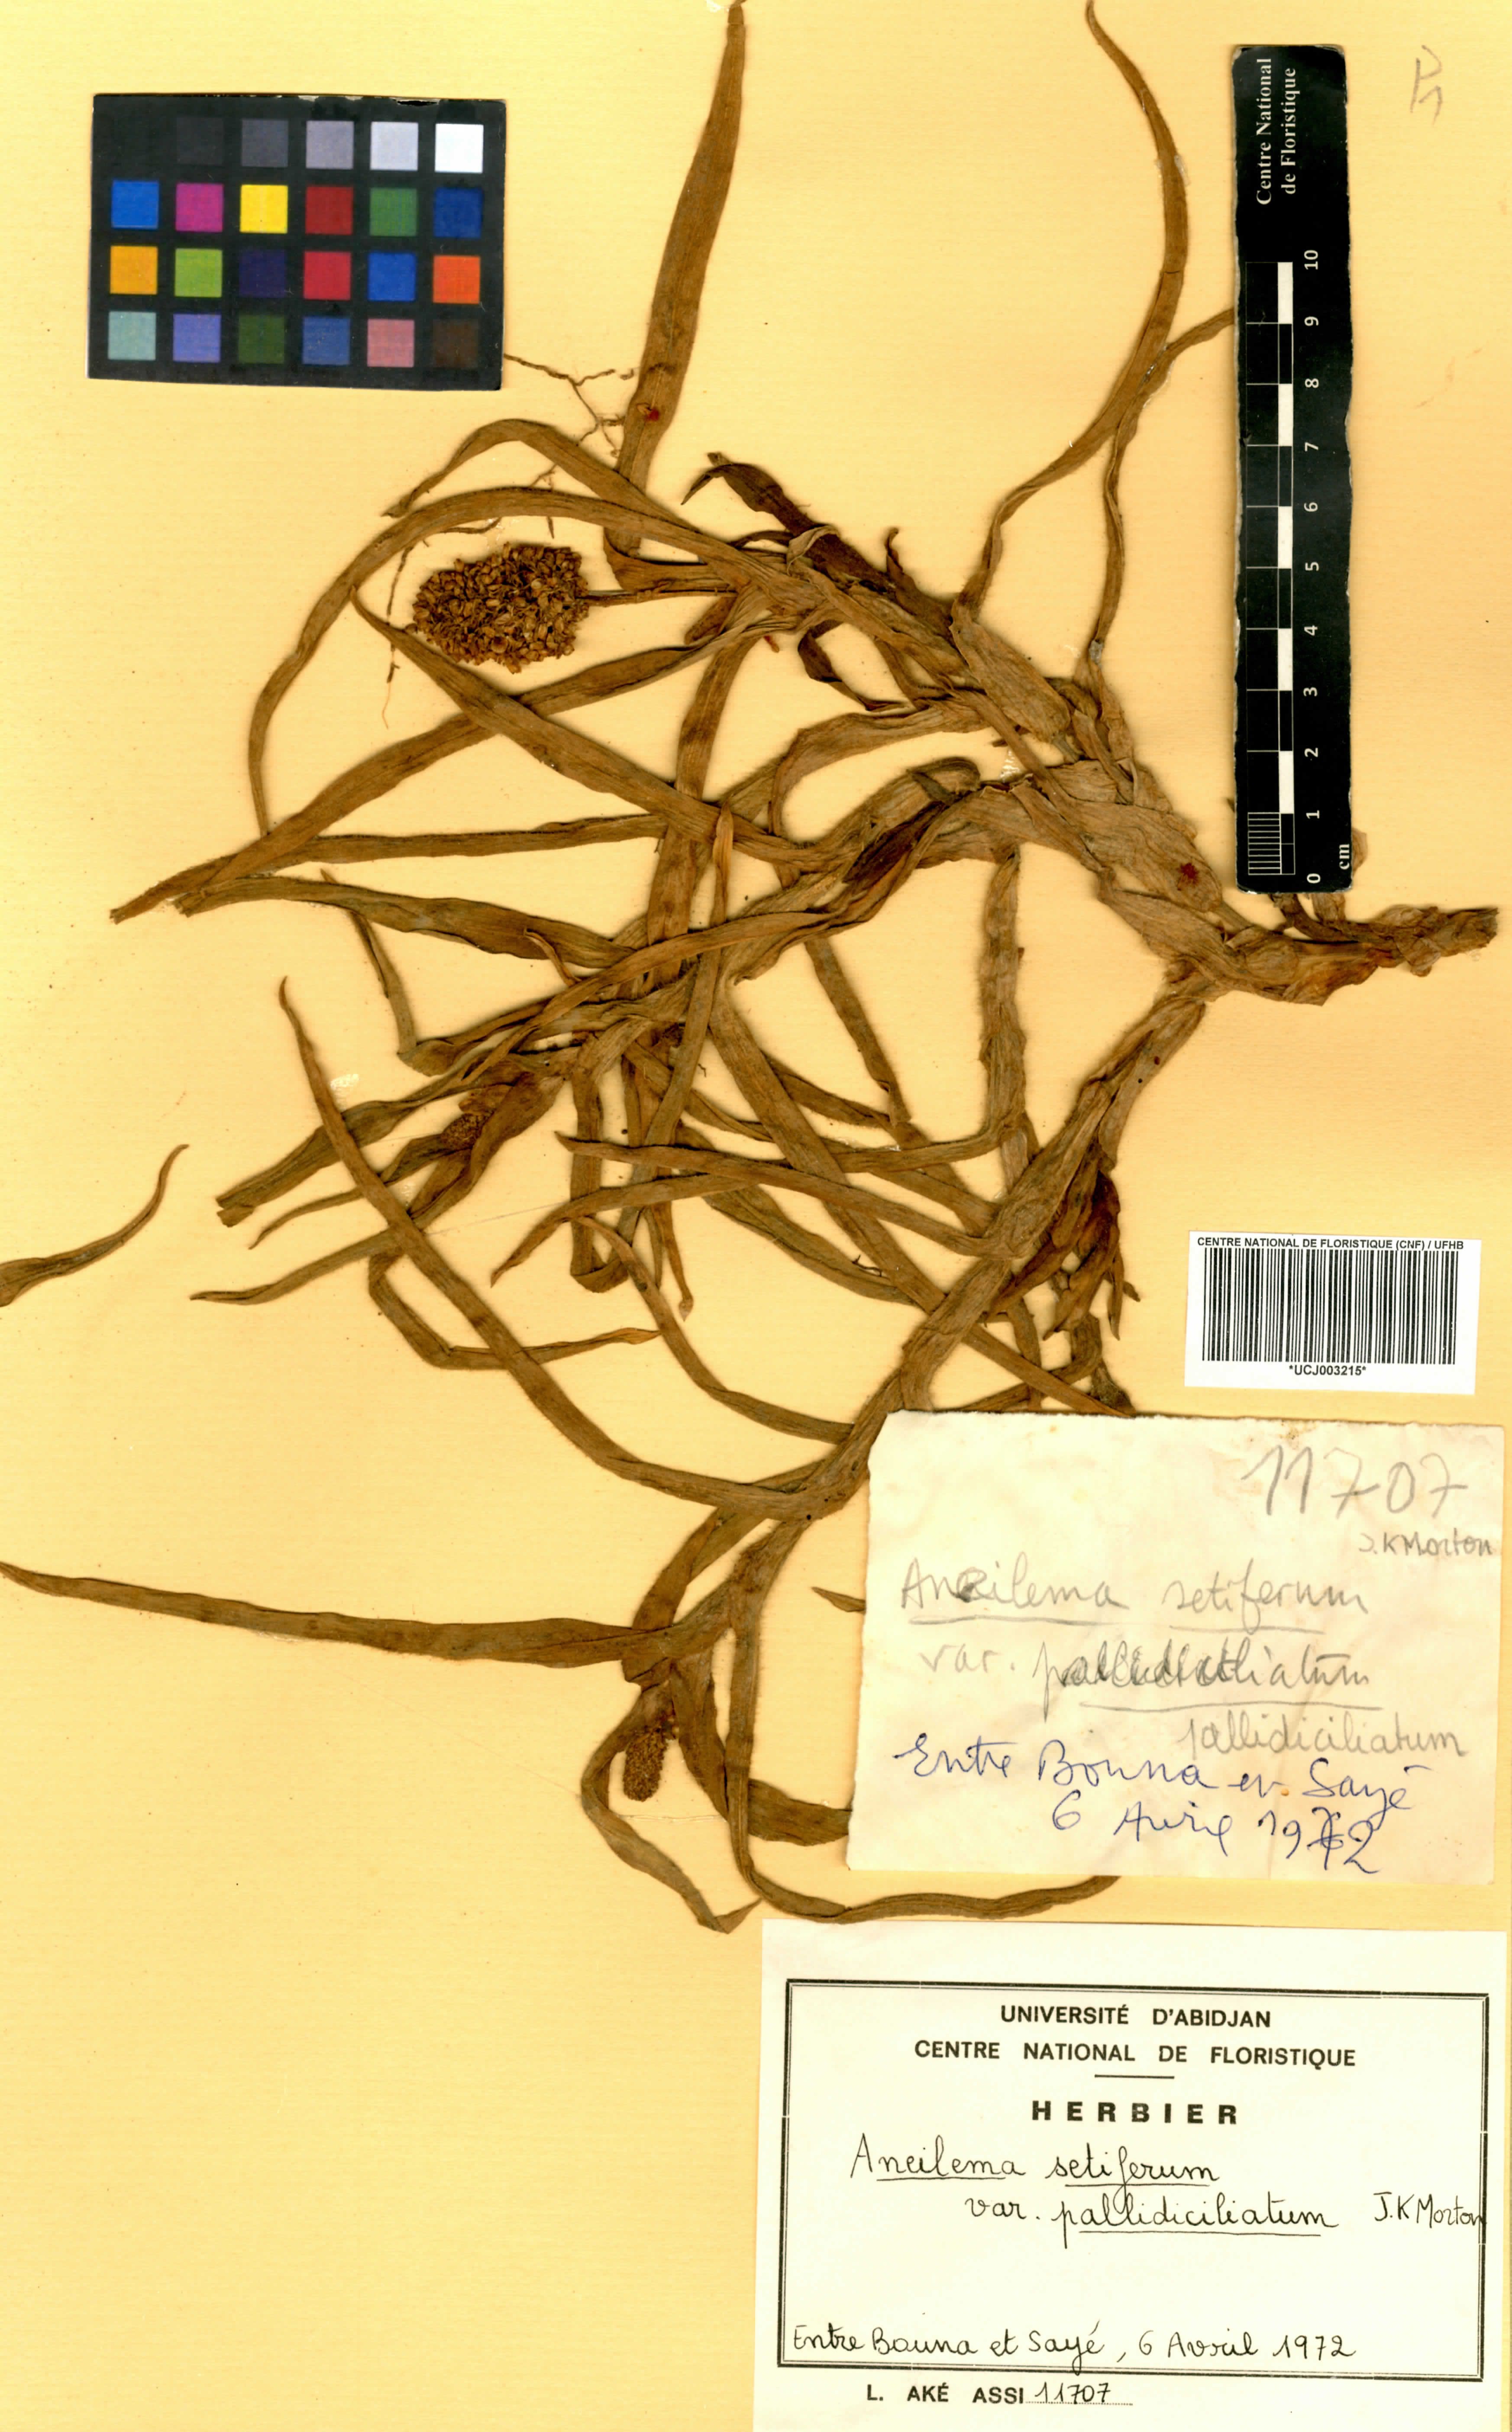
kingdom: Plantae
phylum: Tracheophyta
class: Liliopsida
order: Commelinales
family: Commelinaceae
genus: Aneilema
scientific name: Aneilema setiferum
